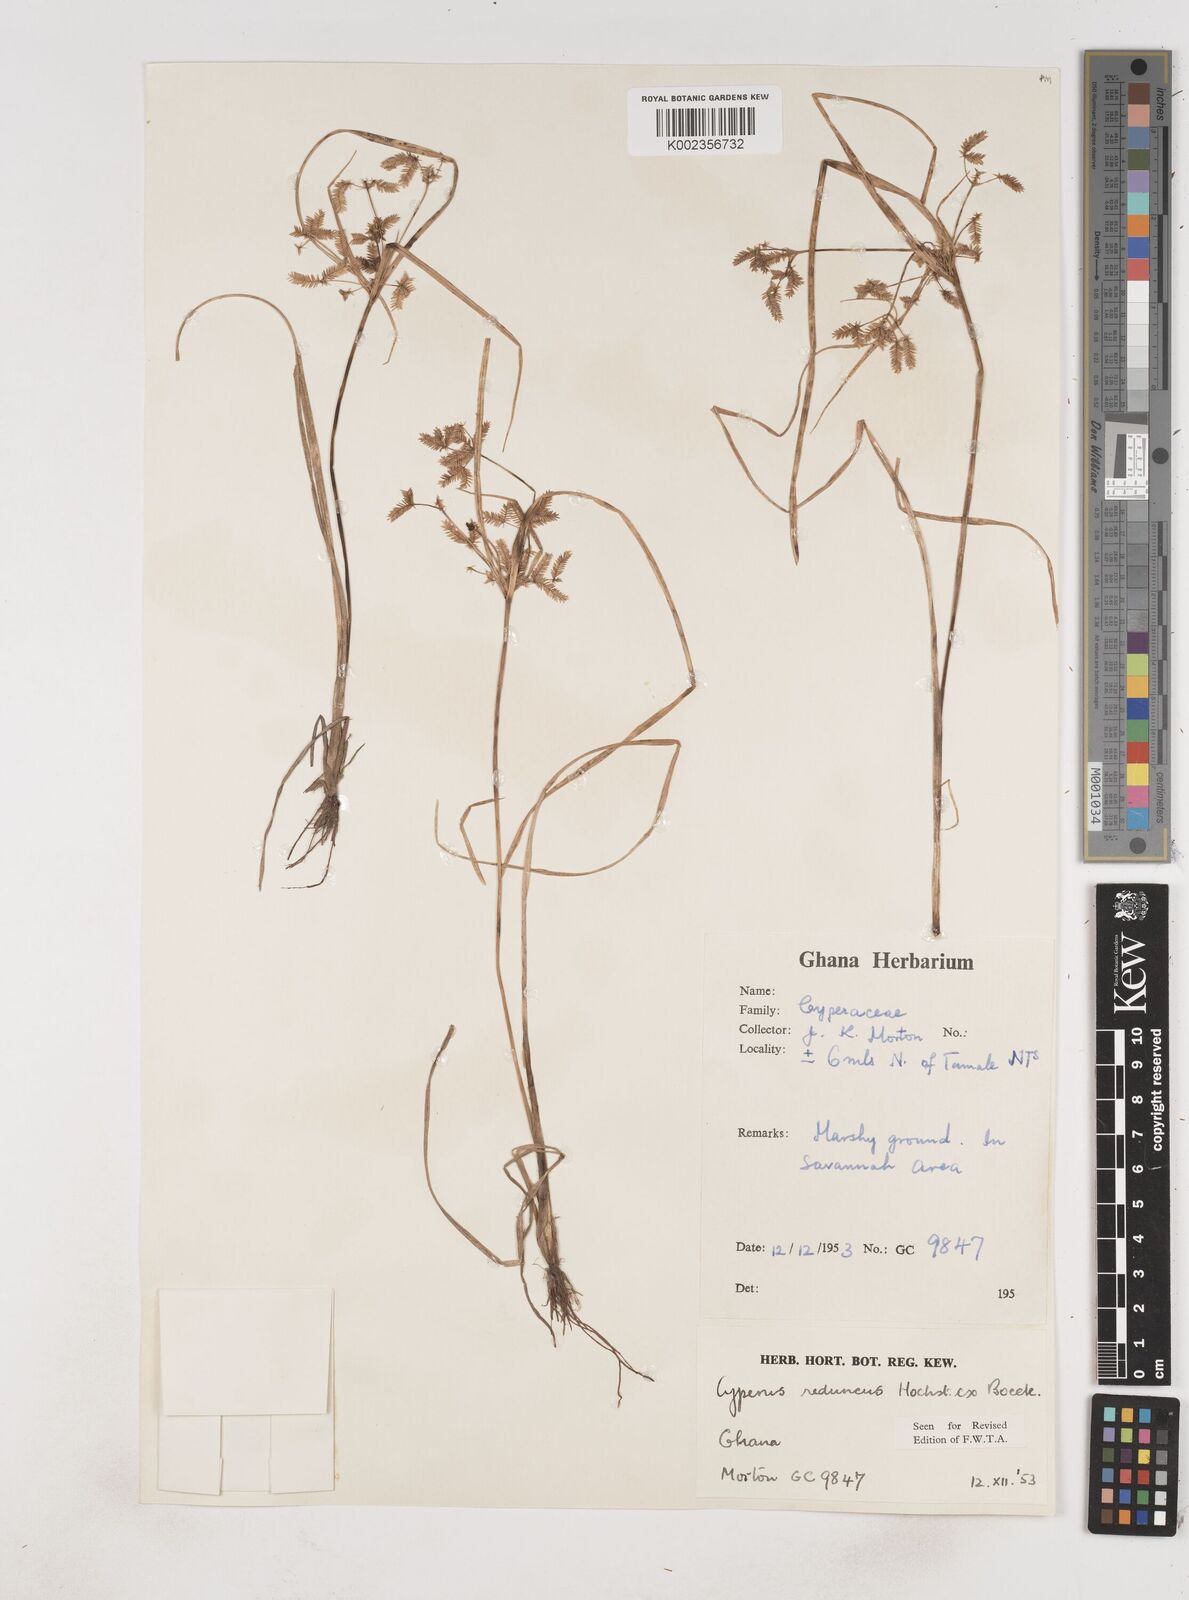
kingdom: Plantae
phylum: Tracheophyta
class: Liliopsida
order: Poales
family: Cyperaceae
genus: Cyperus
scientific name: Cyperus reduncus
